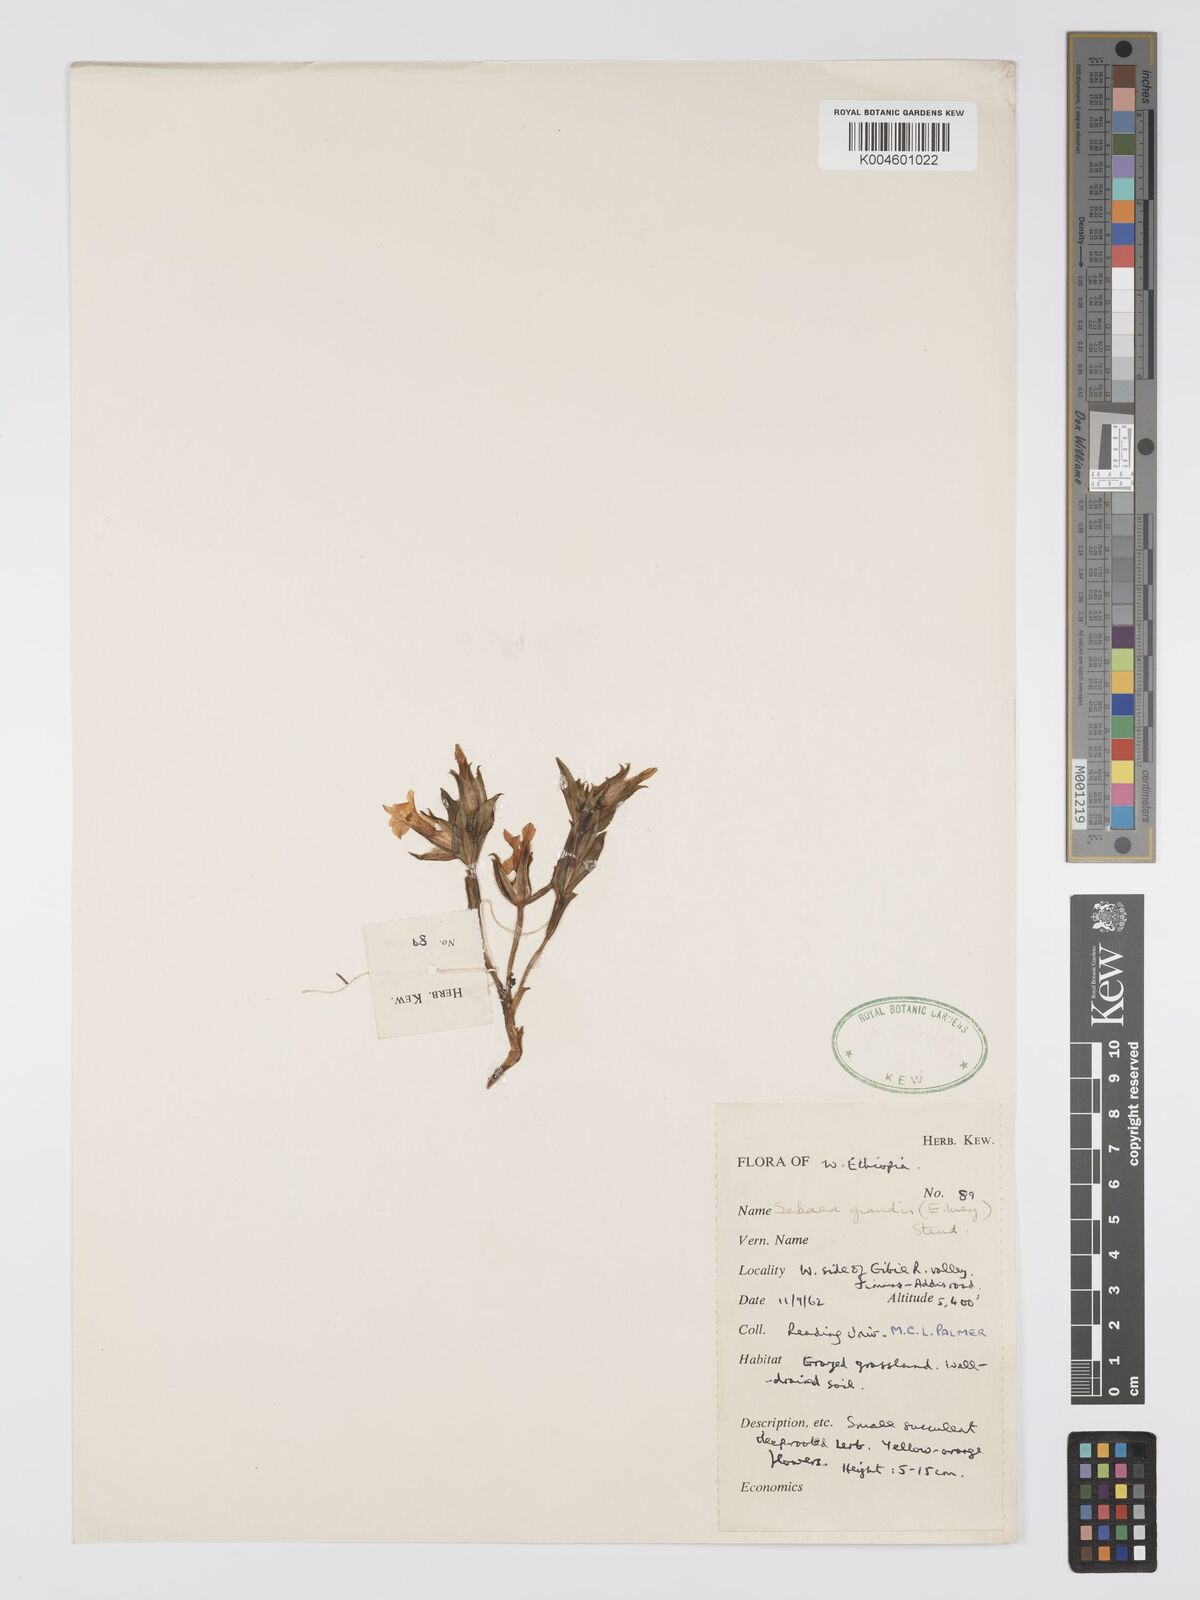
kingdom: Plantae
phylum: Tracheophyta
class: Magnoliopsida
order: Gentianales
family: Gentianaceae
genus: Exochaenium
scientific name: Exochaenium grande
